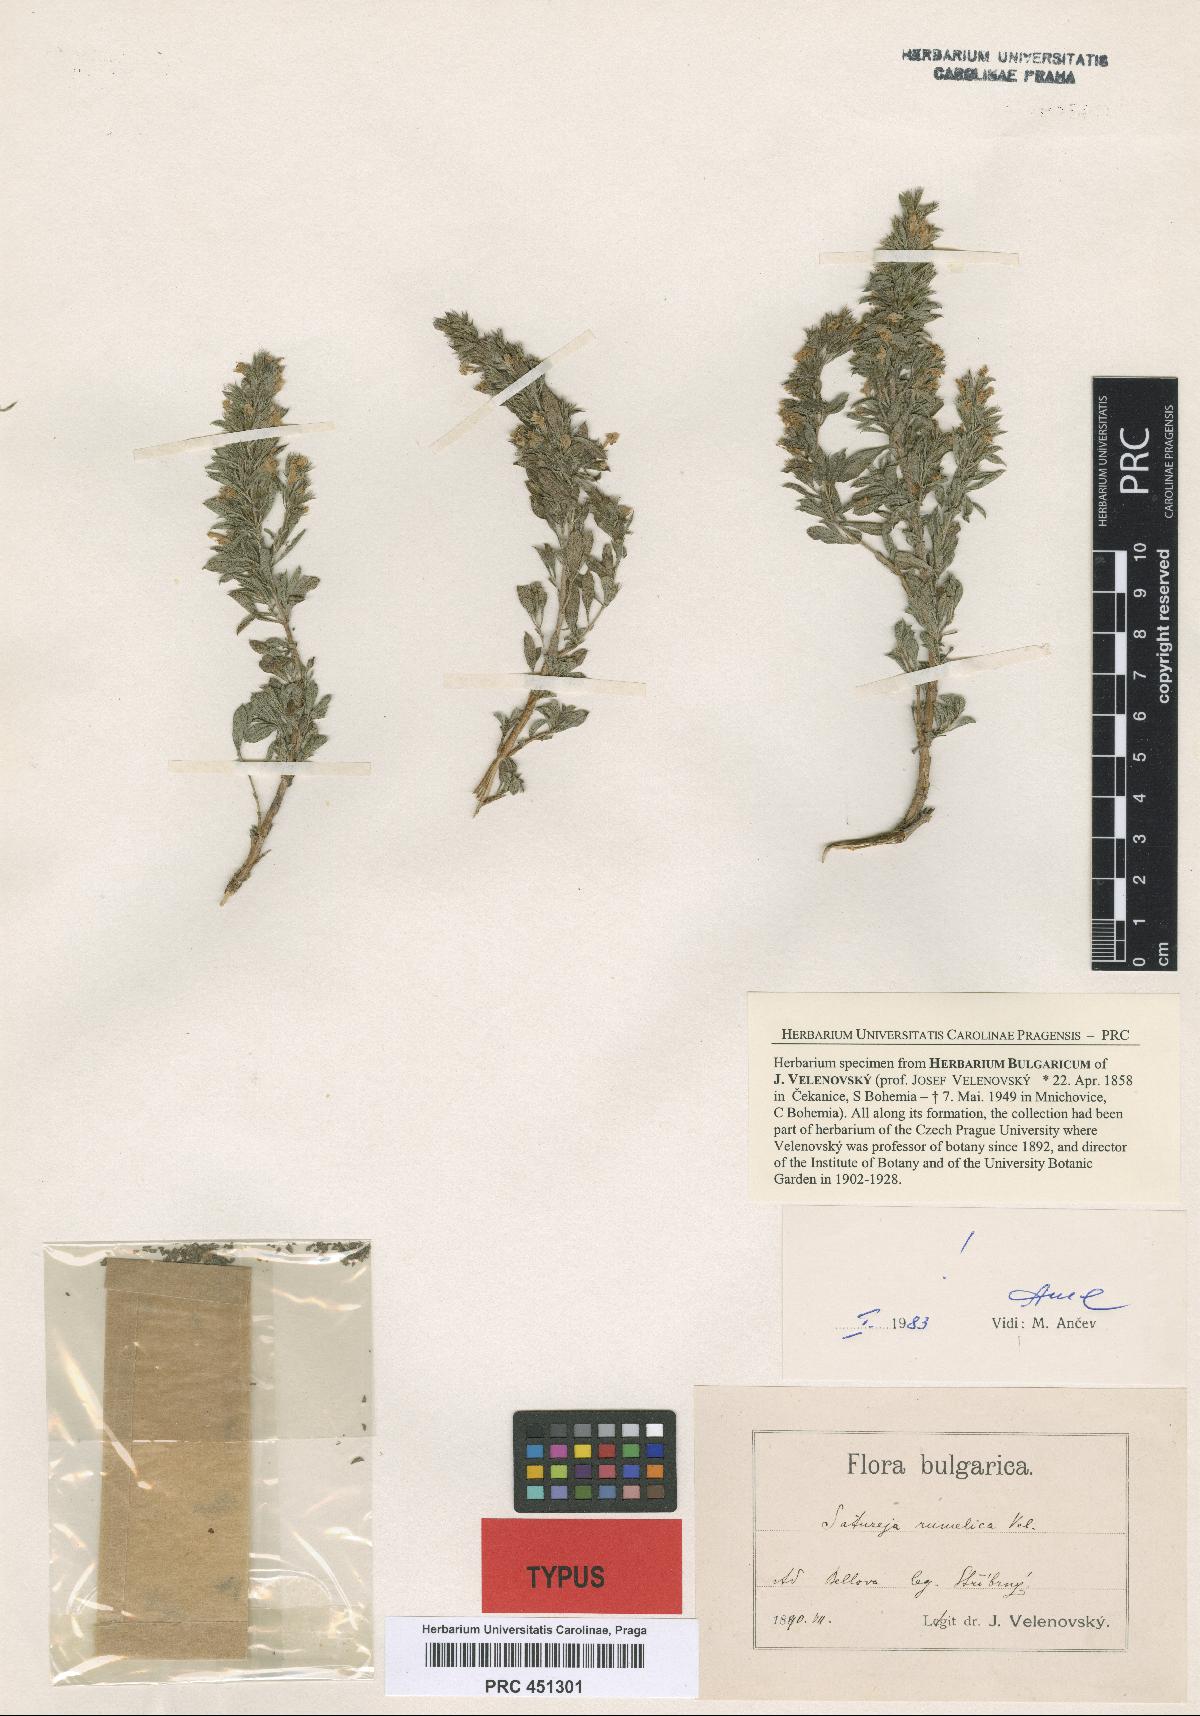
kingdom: Plantae
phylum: Tracheophyta
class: Magnoliopsida
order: Lamiales
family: Lamiaceae
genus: Satureja
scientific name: Satureja rumelica
